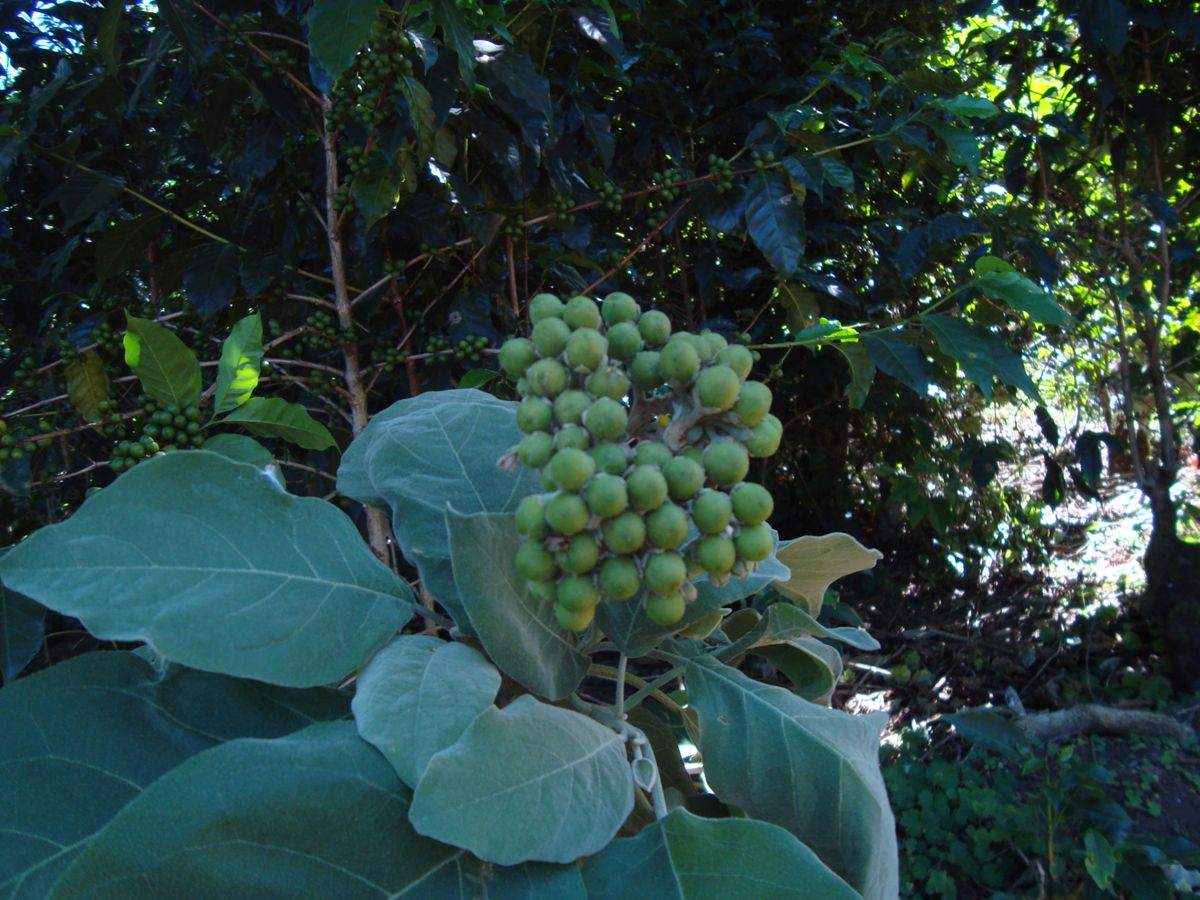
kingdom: Plantae
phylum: Tracheophyta
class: Magnoliopsida
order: Solanales
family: Solanaceae
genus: Solanum
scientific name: Solanum erianthum
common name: Tobacco-tree
